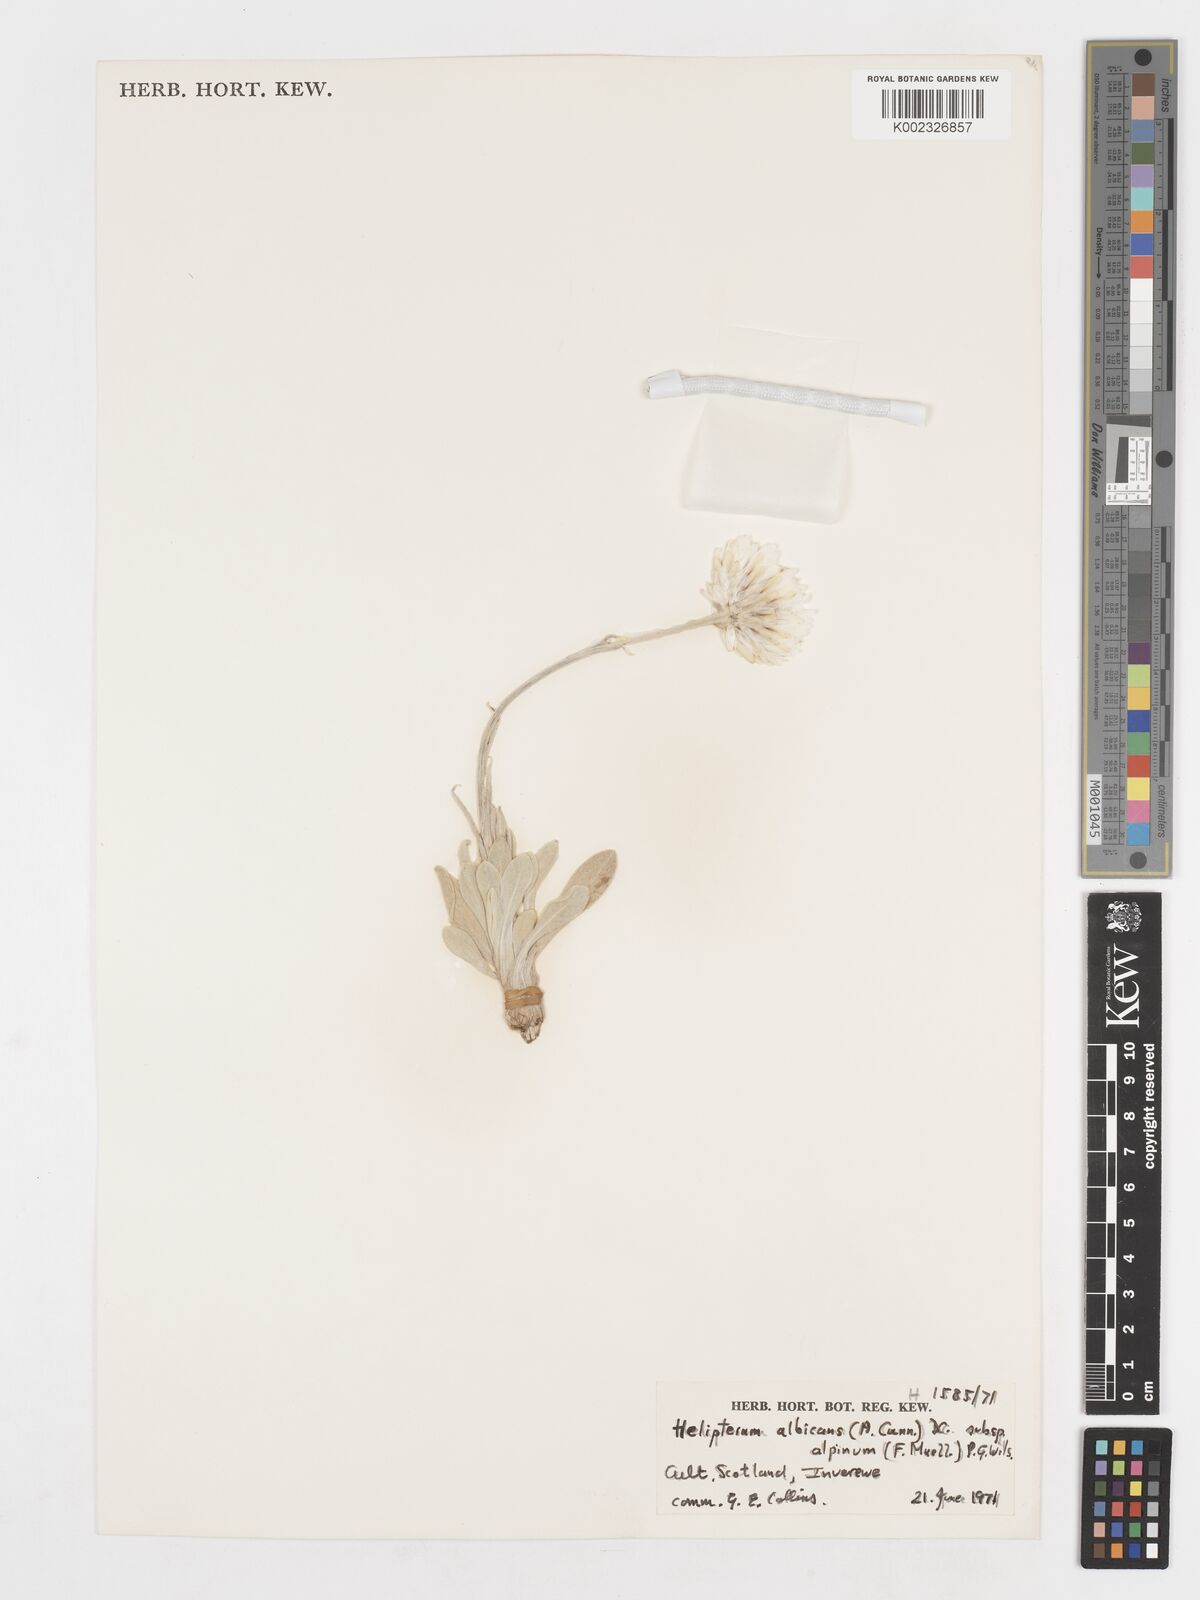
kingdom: Plantae
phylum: Tracheophyta
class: Magnoliopsida
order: Asterales
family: Asteraceae
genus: Syncarpha
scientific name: Syncarpha
